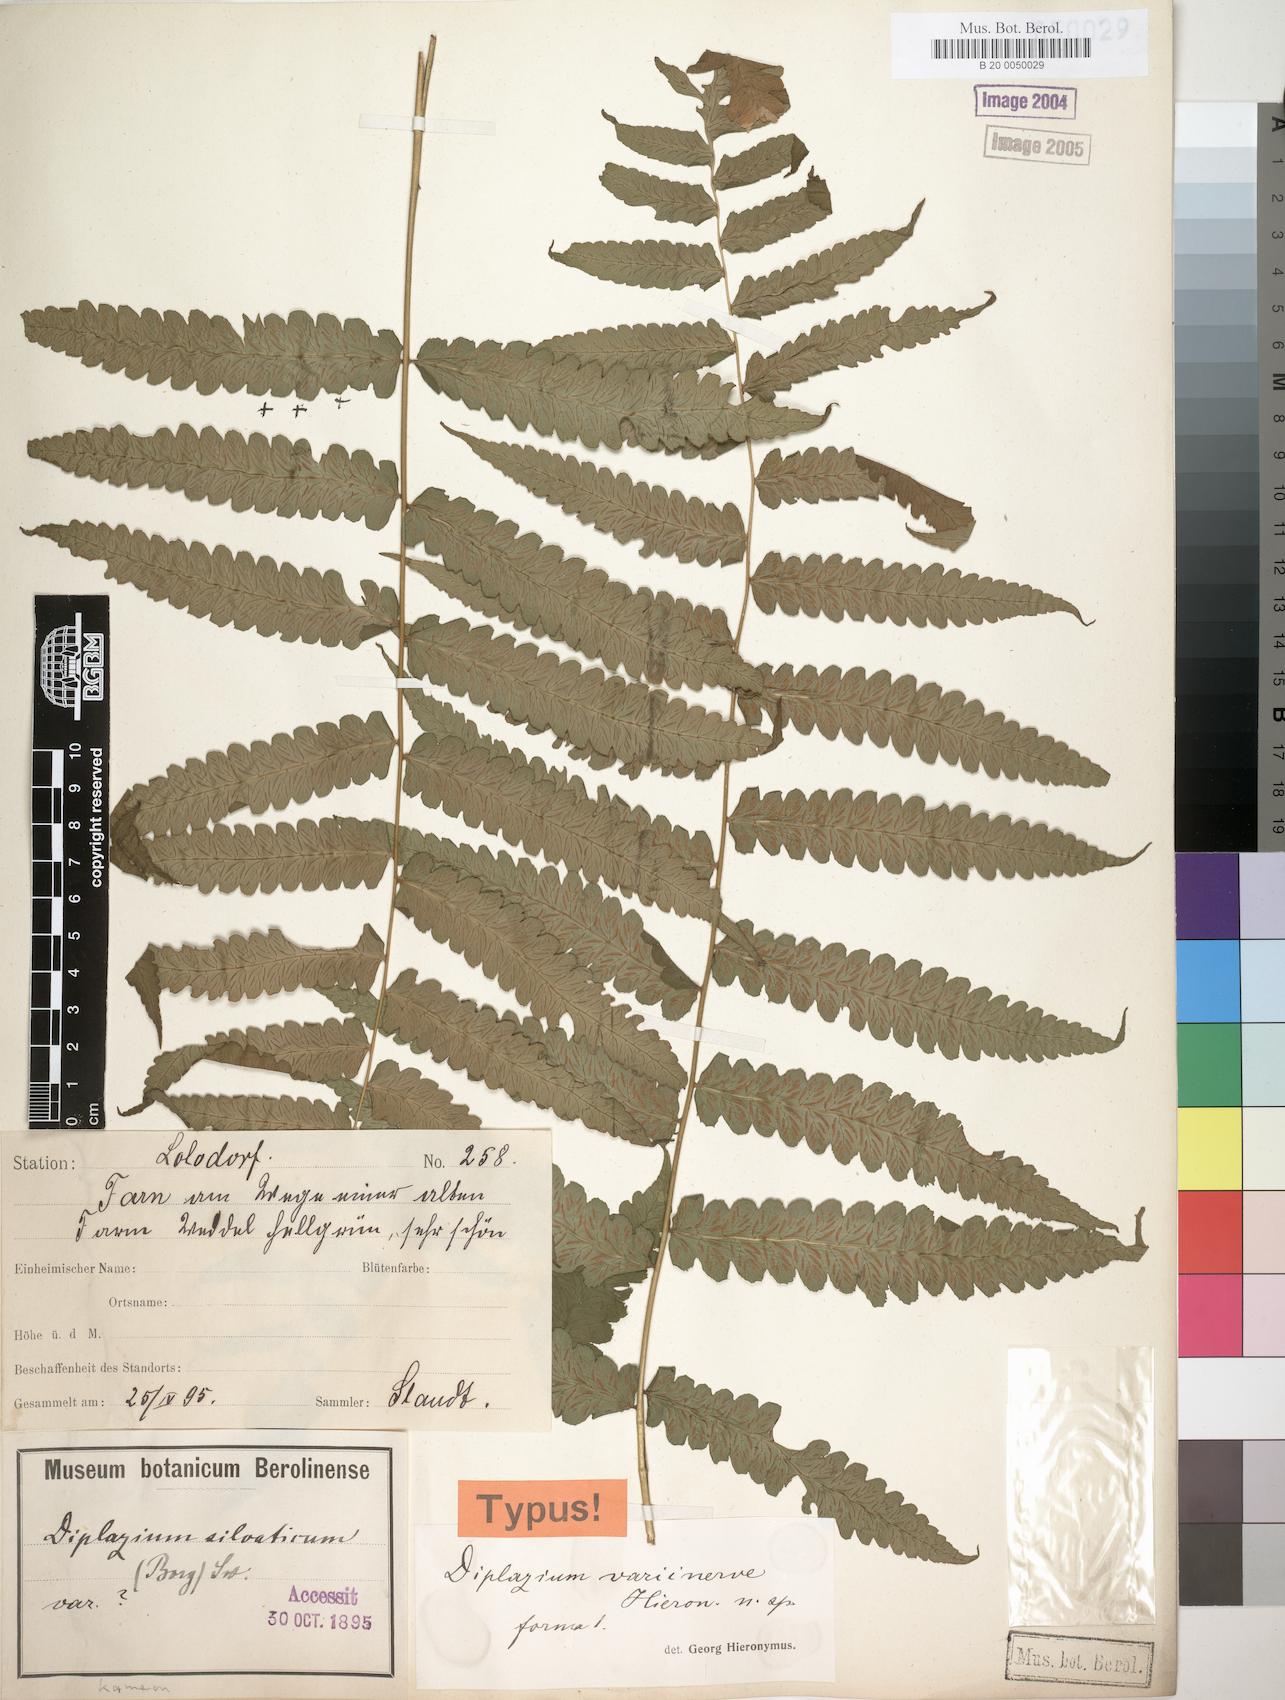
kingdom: Plantae
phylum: Tracheophyta
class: Polypodiopsida
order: Polypodiales
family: Athyriaceae
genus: Diplazium
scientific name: Diplazium welwitschii
